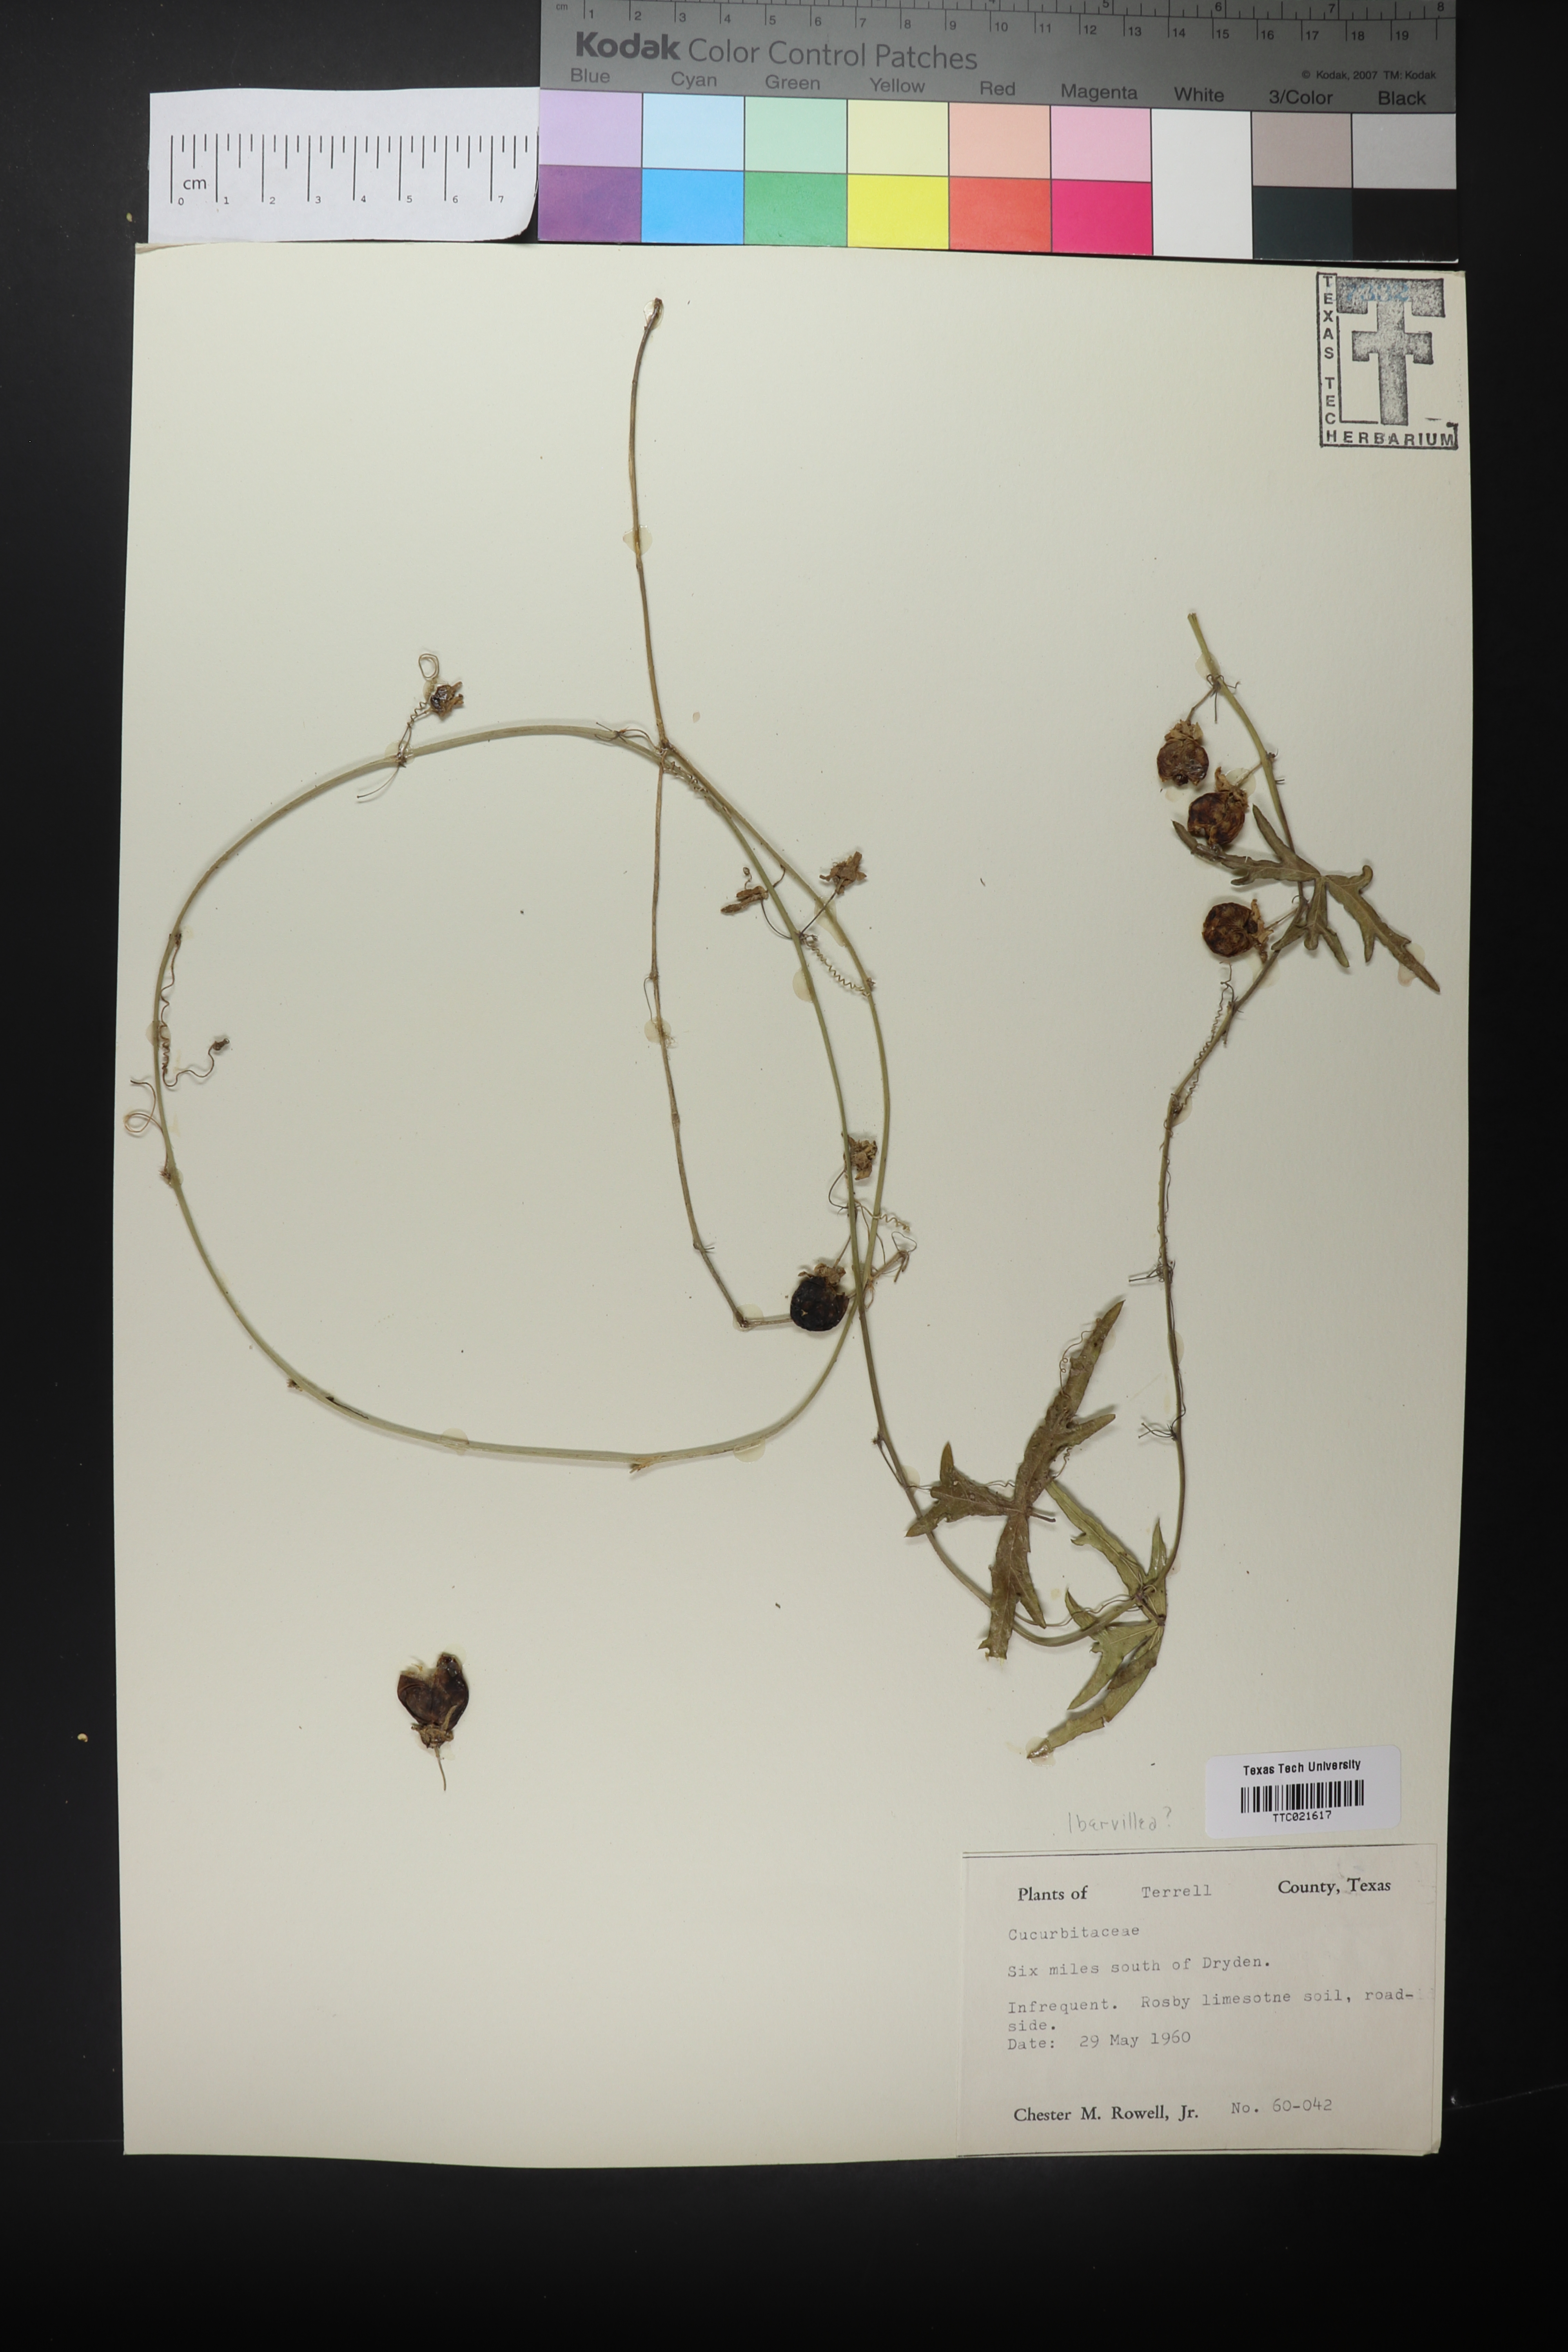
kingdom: Plantae
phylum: Tracheophyta
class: Magnoliopsida
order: Cucurbitales
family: Cucurbitaceae
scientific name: Cucurbitaceae
